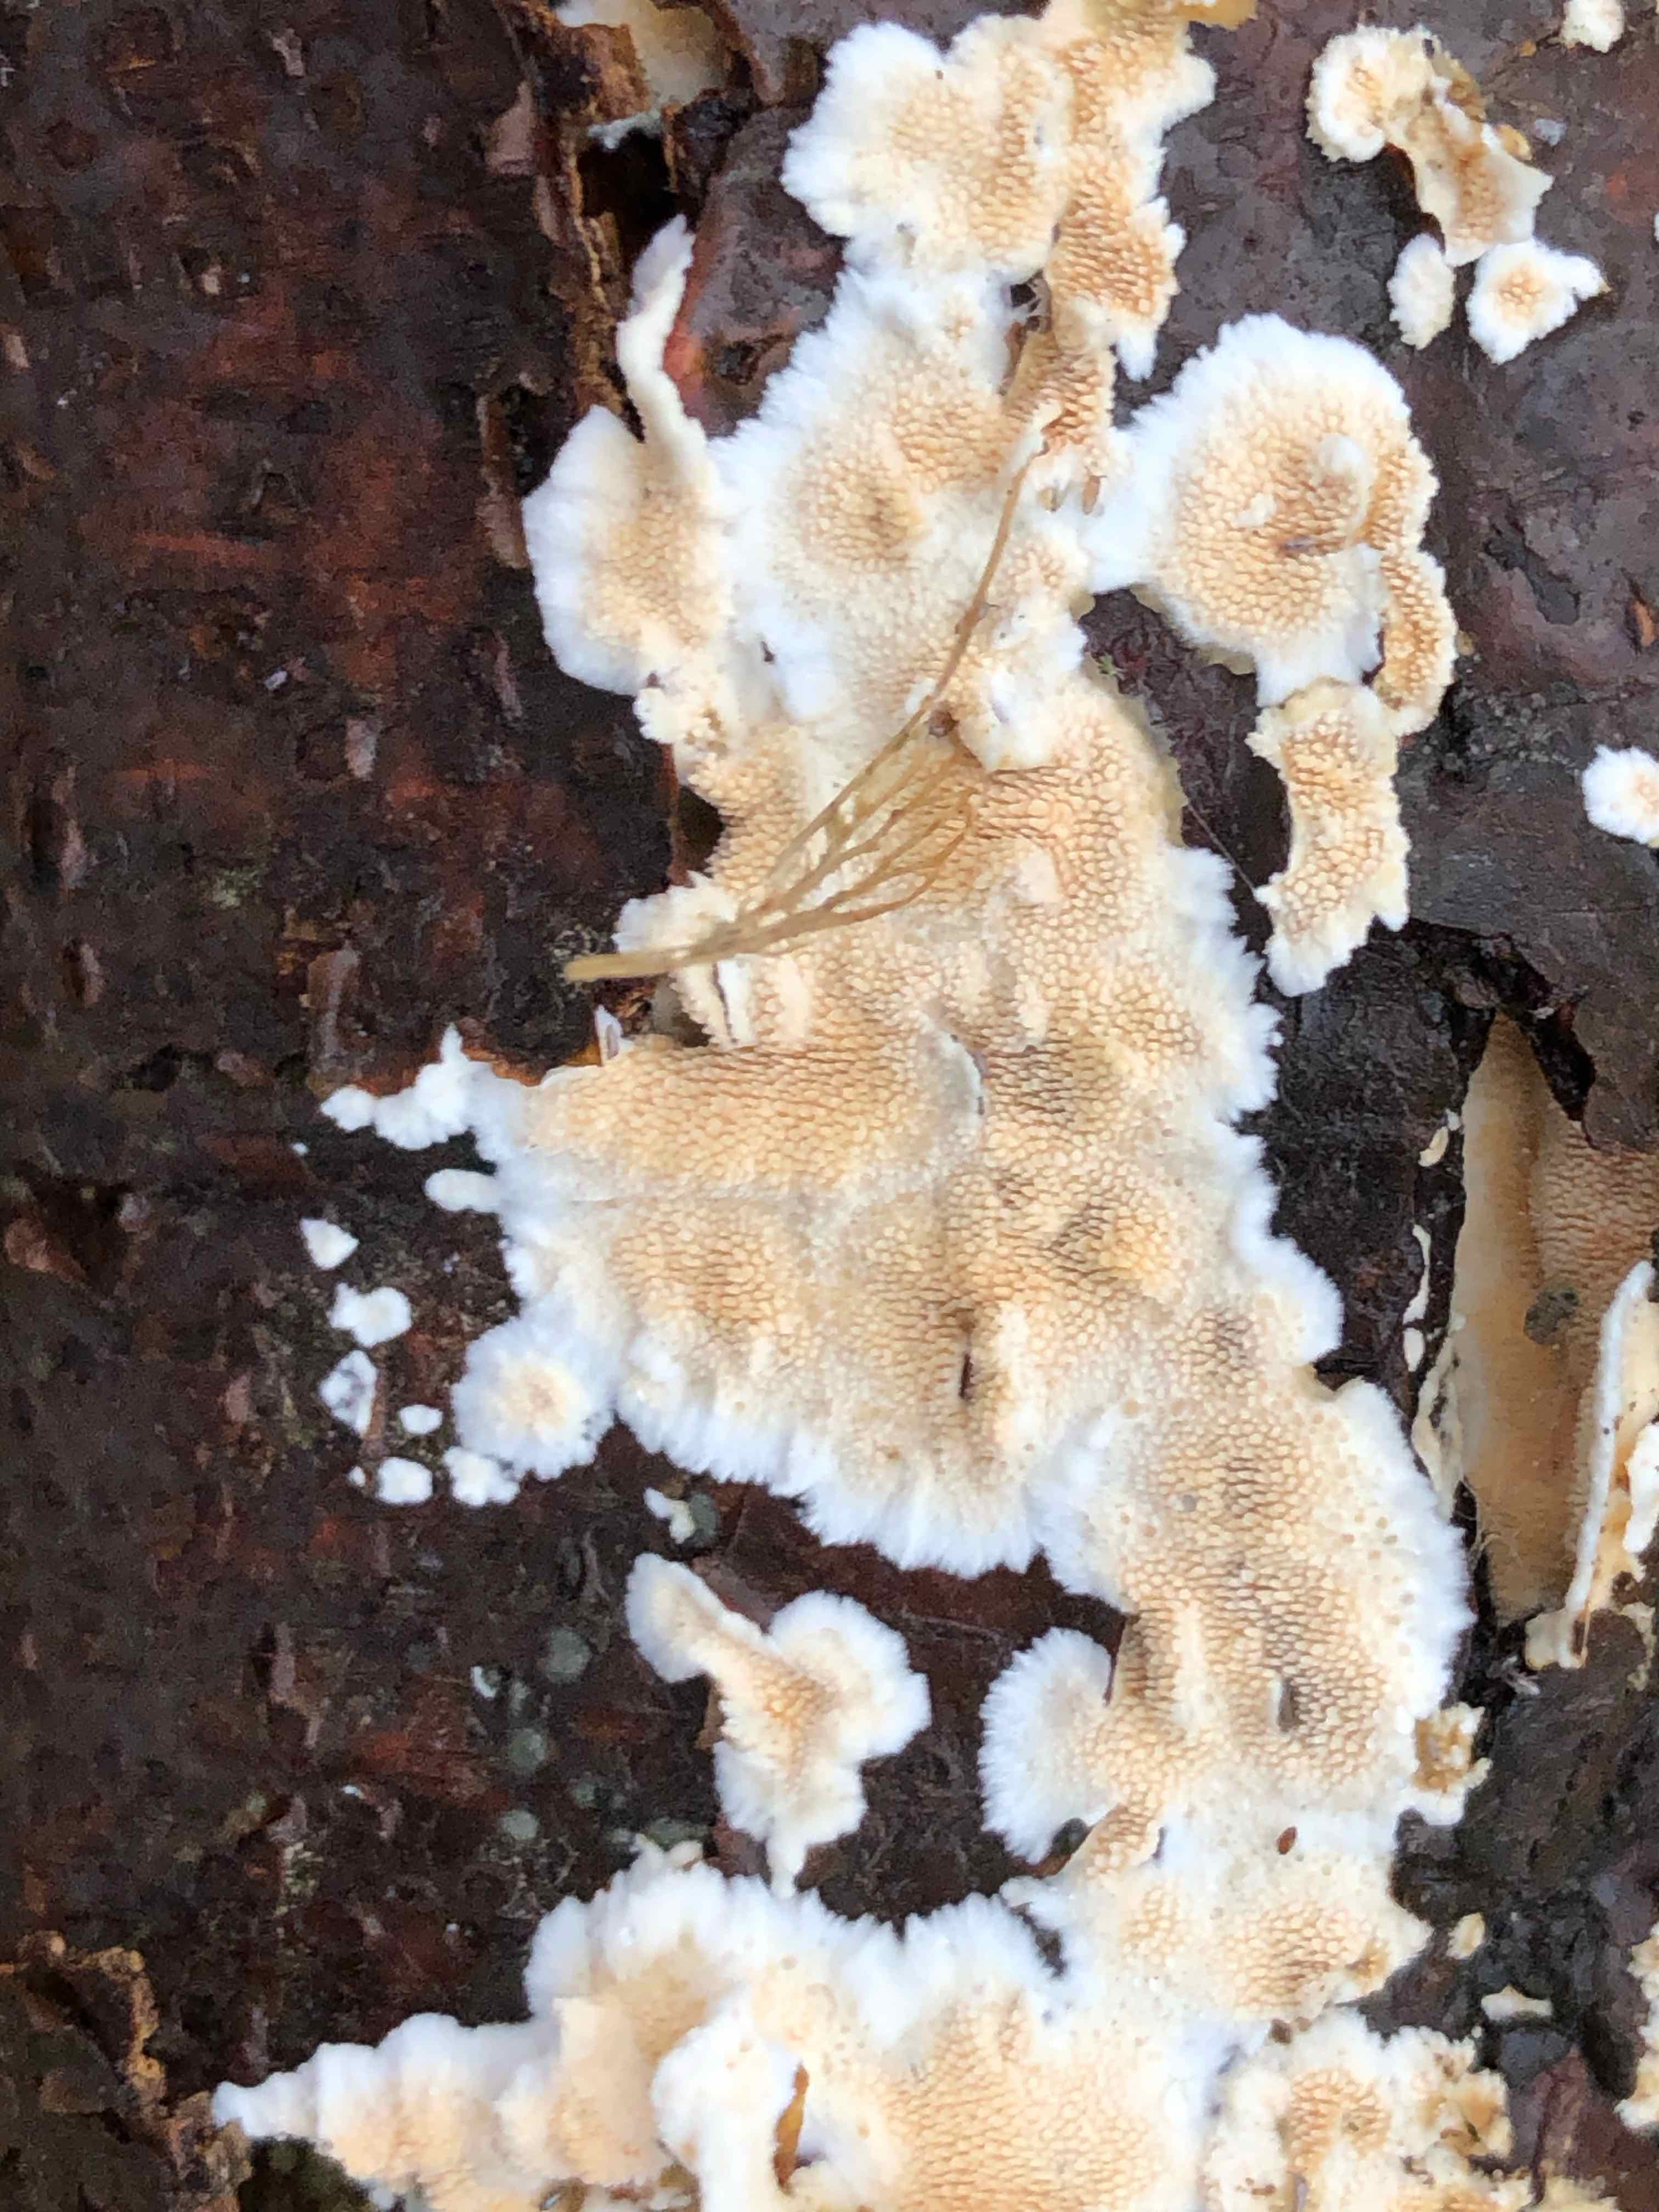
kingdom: Fungi
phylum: Basidiomycota
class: Agaricomycetes
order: Polyporales
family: Steccherinaceae
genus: Steccherinum
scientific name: Steccherinum ochraceum
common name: almindelig skønpig
